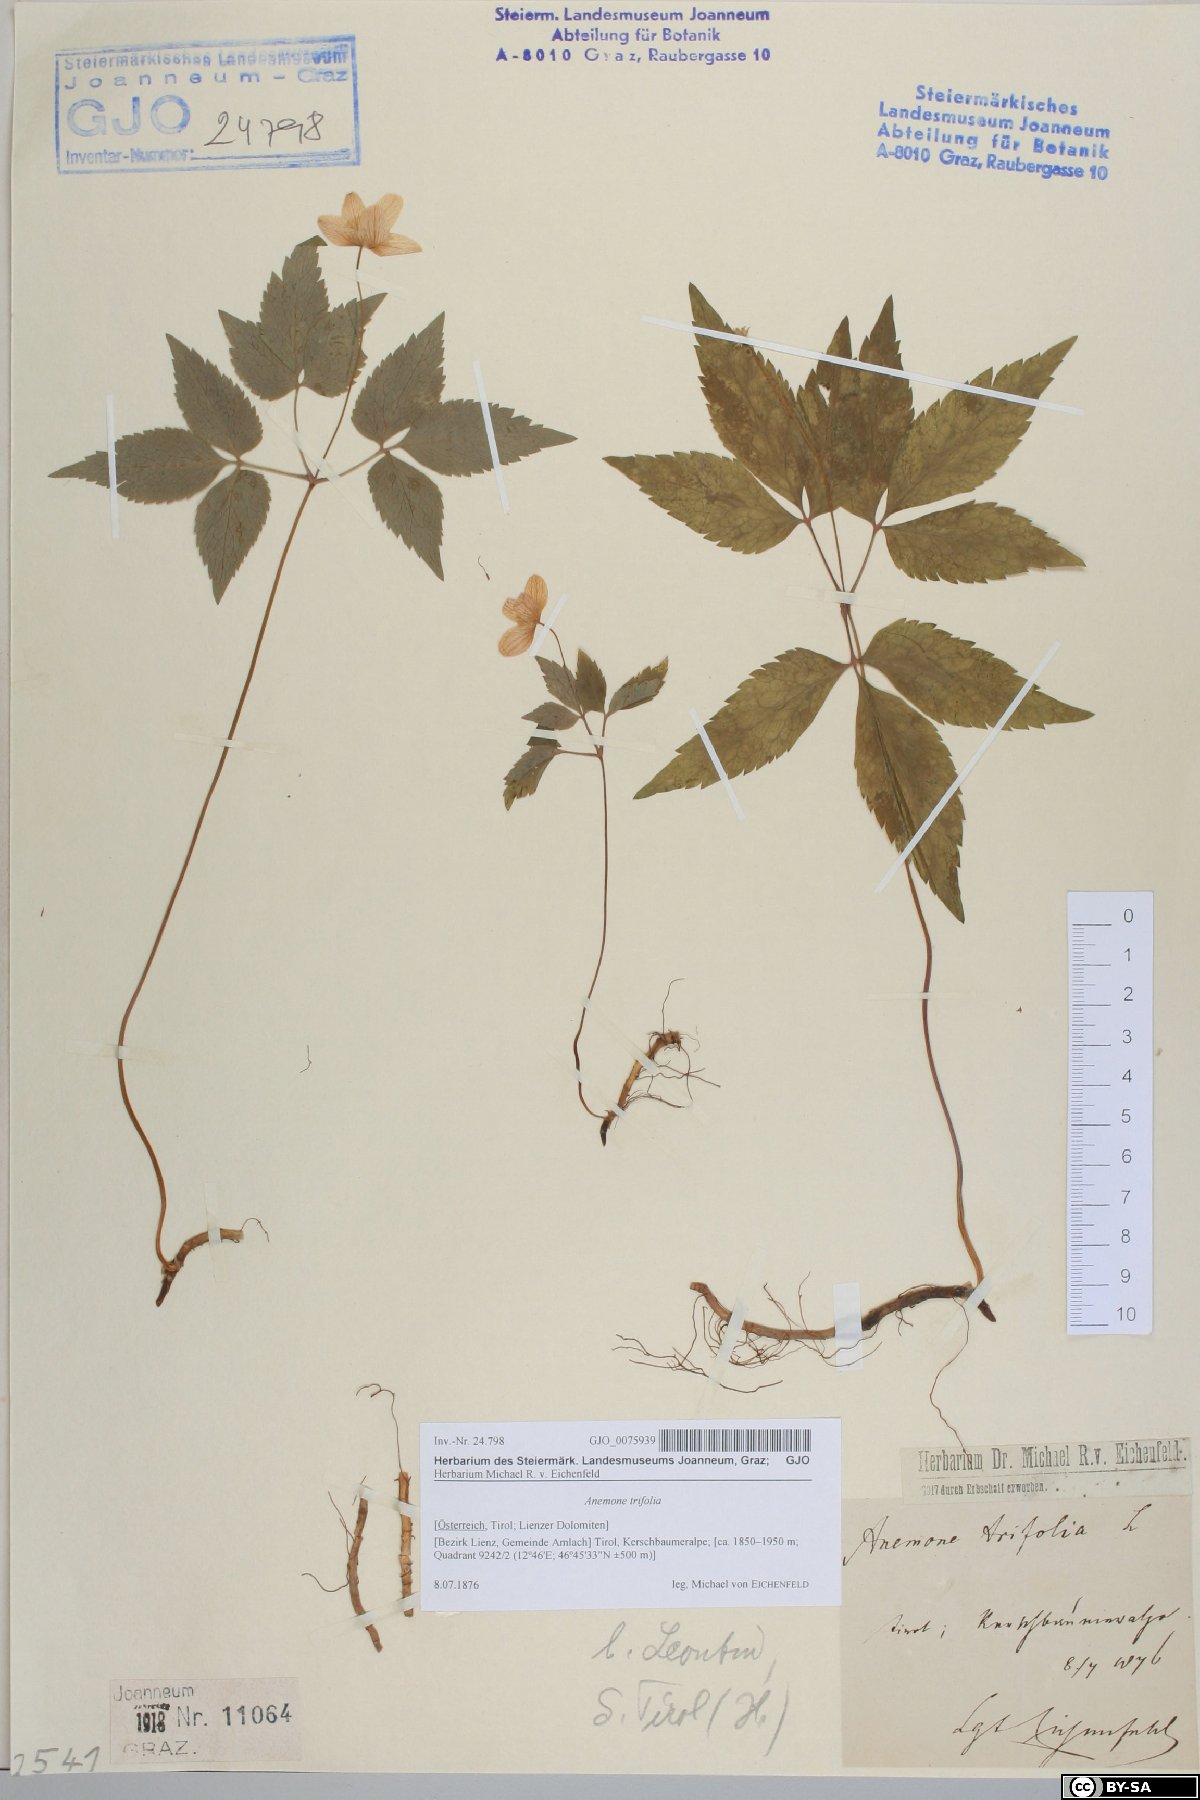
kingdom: Plantae
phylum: Tracheophyta
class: Magnoliopsida
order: Ranunculales
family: Ranunculaceae
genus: Anemone
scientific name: Anemone trifolia
